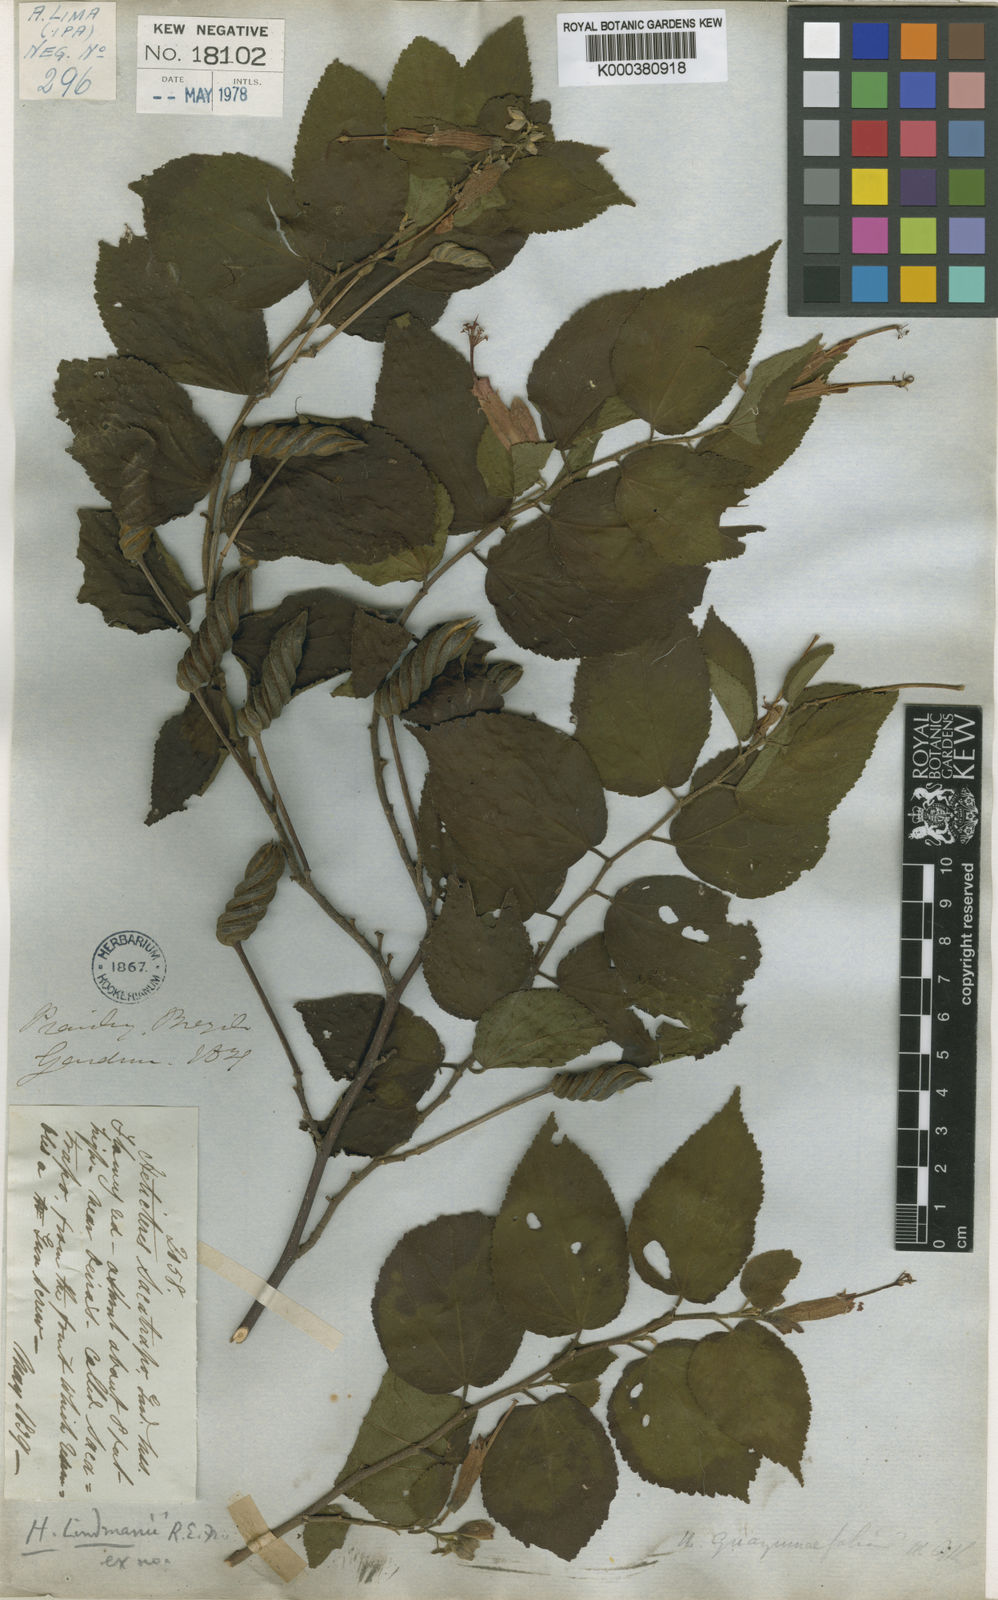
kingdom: Plantae
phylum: Tracheophyta
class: Magnoliopsida
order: Malvales
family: Malvaceae
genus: Helicteres
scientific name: Helicteres corylifolia
